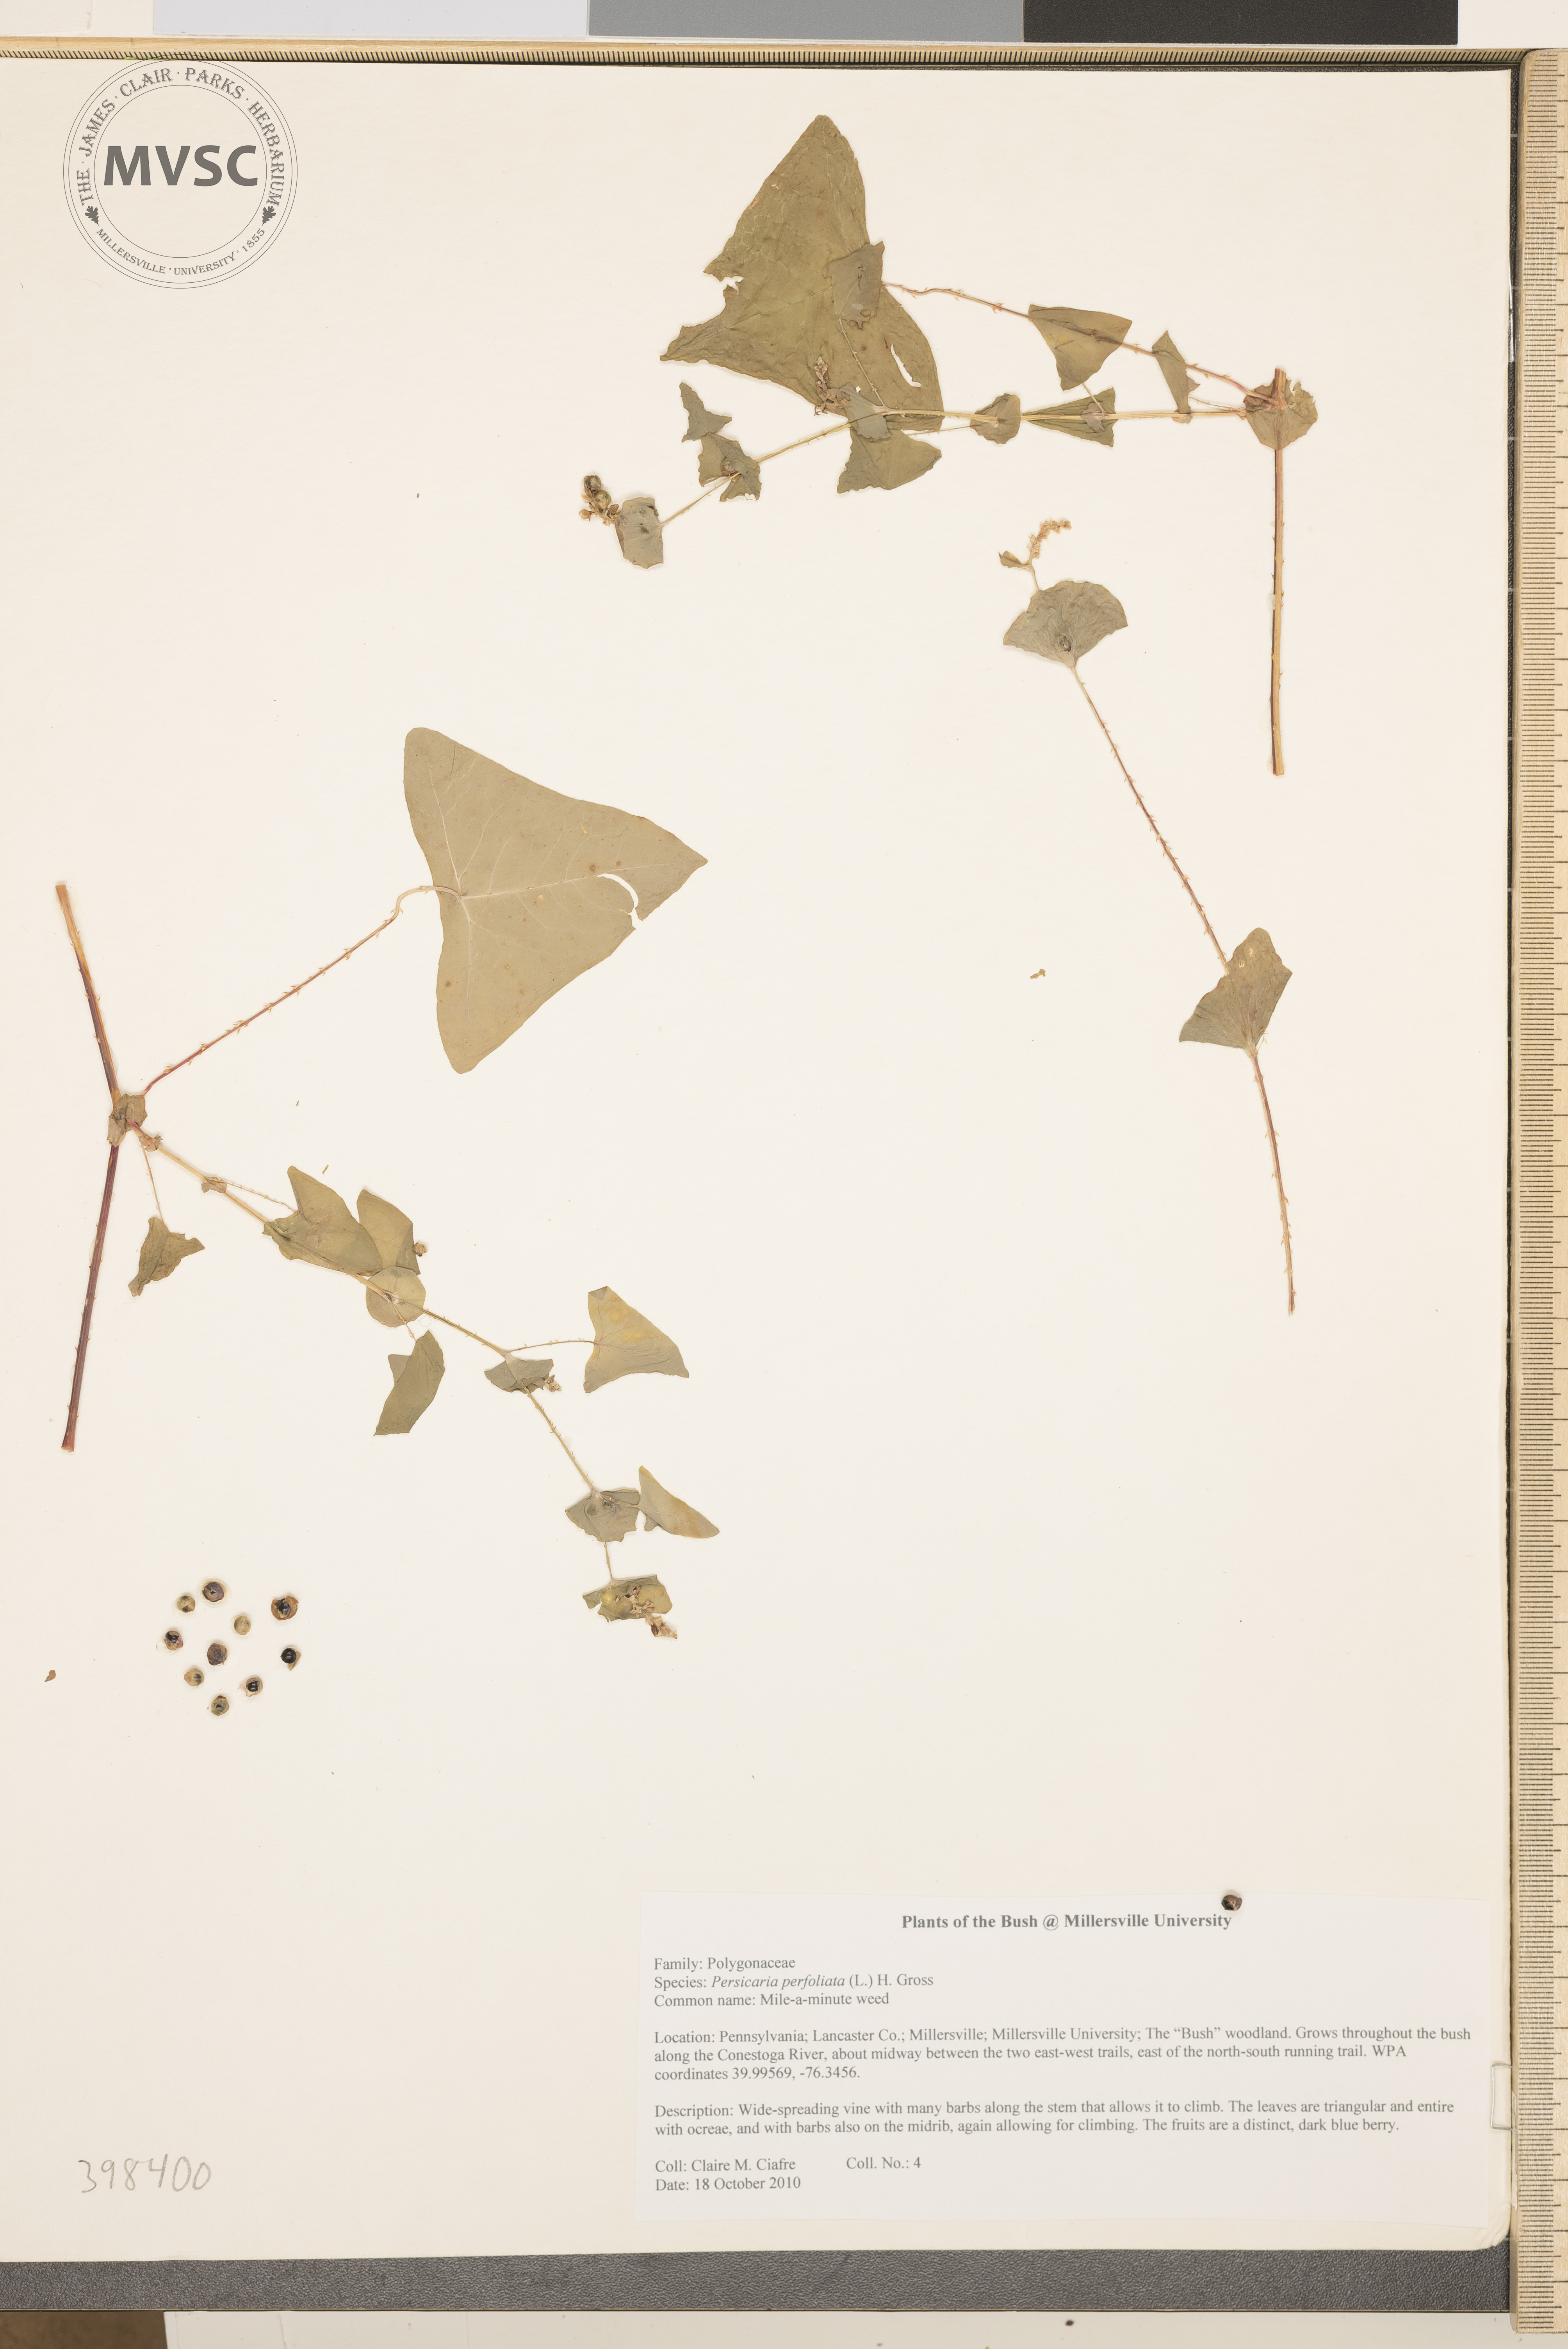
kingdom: Plantae
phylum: Tracheophyta
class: Magnoliopsida
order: Caryophyllales
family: Polygonaceae
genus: Persicaria
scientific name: Persicaria perfoliata
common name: Mile-a-minute weed
